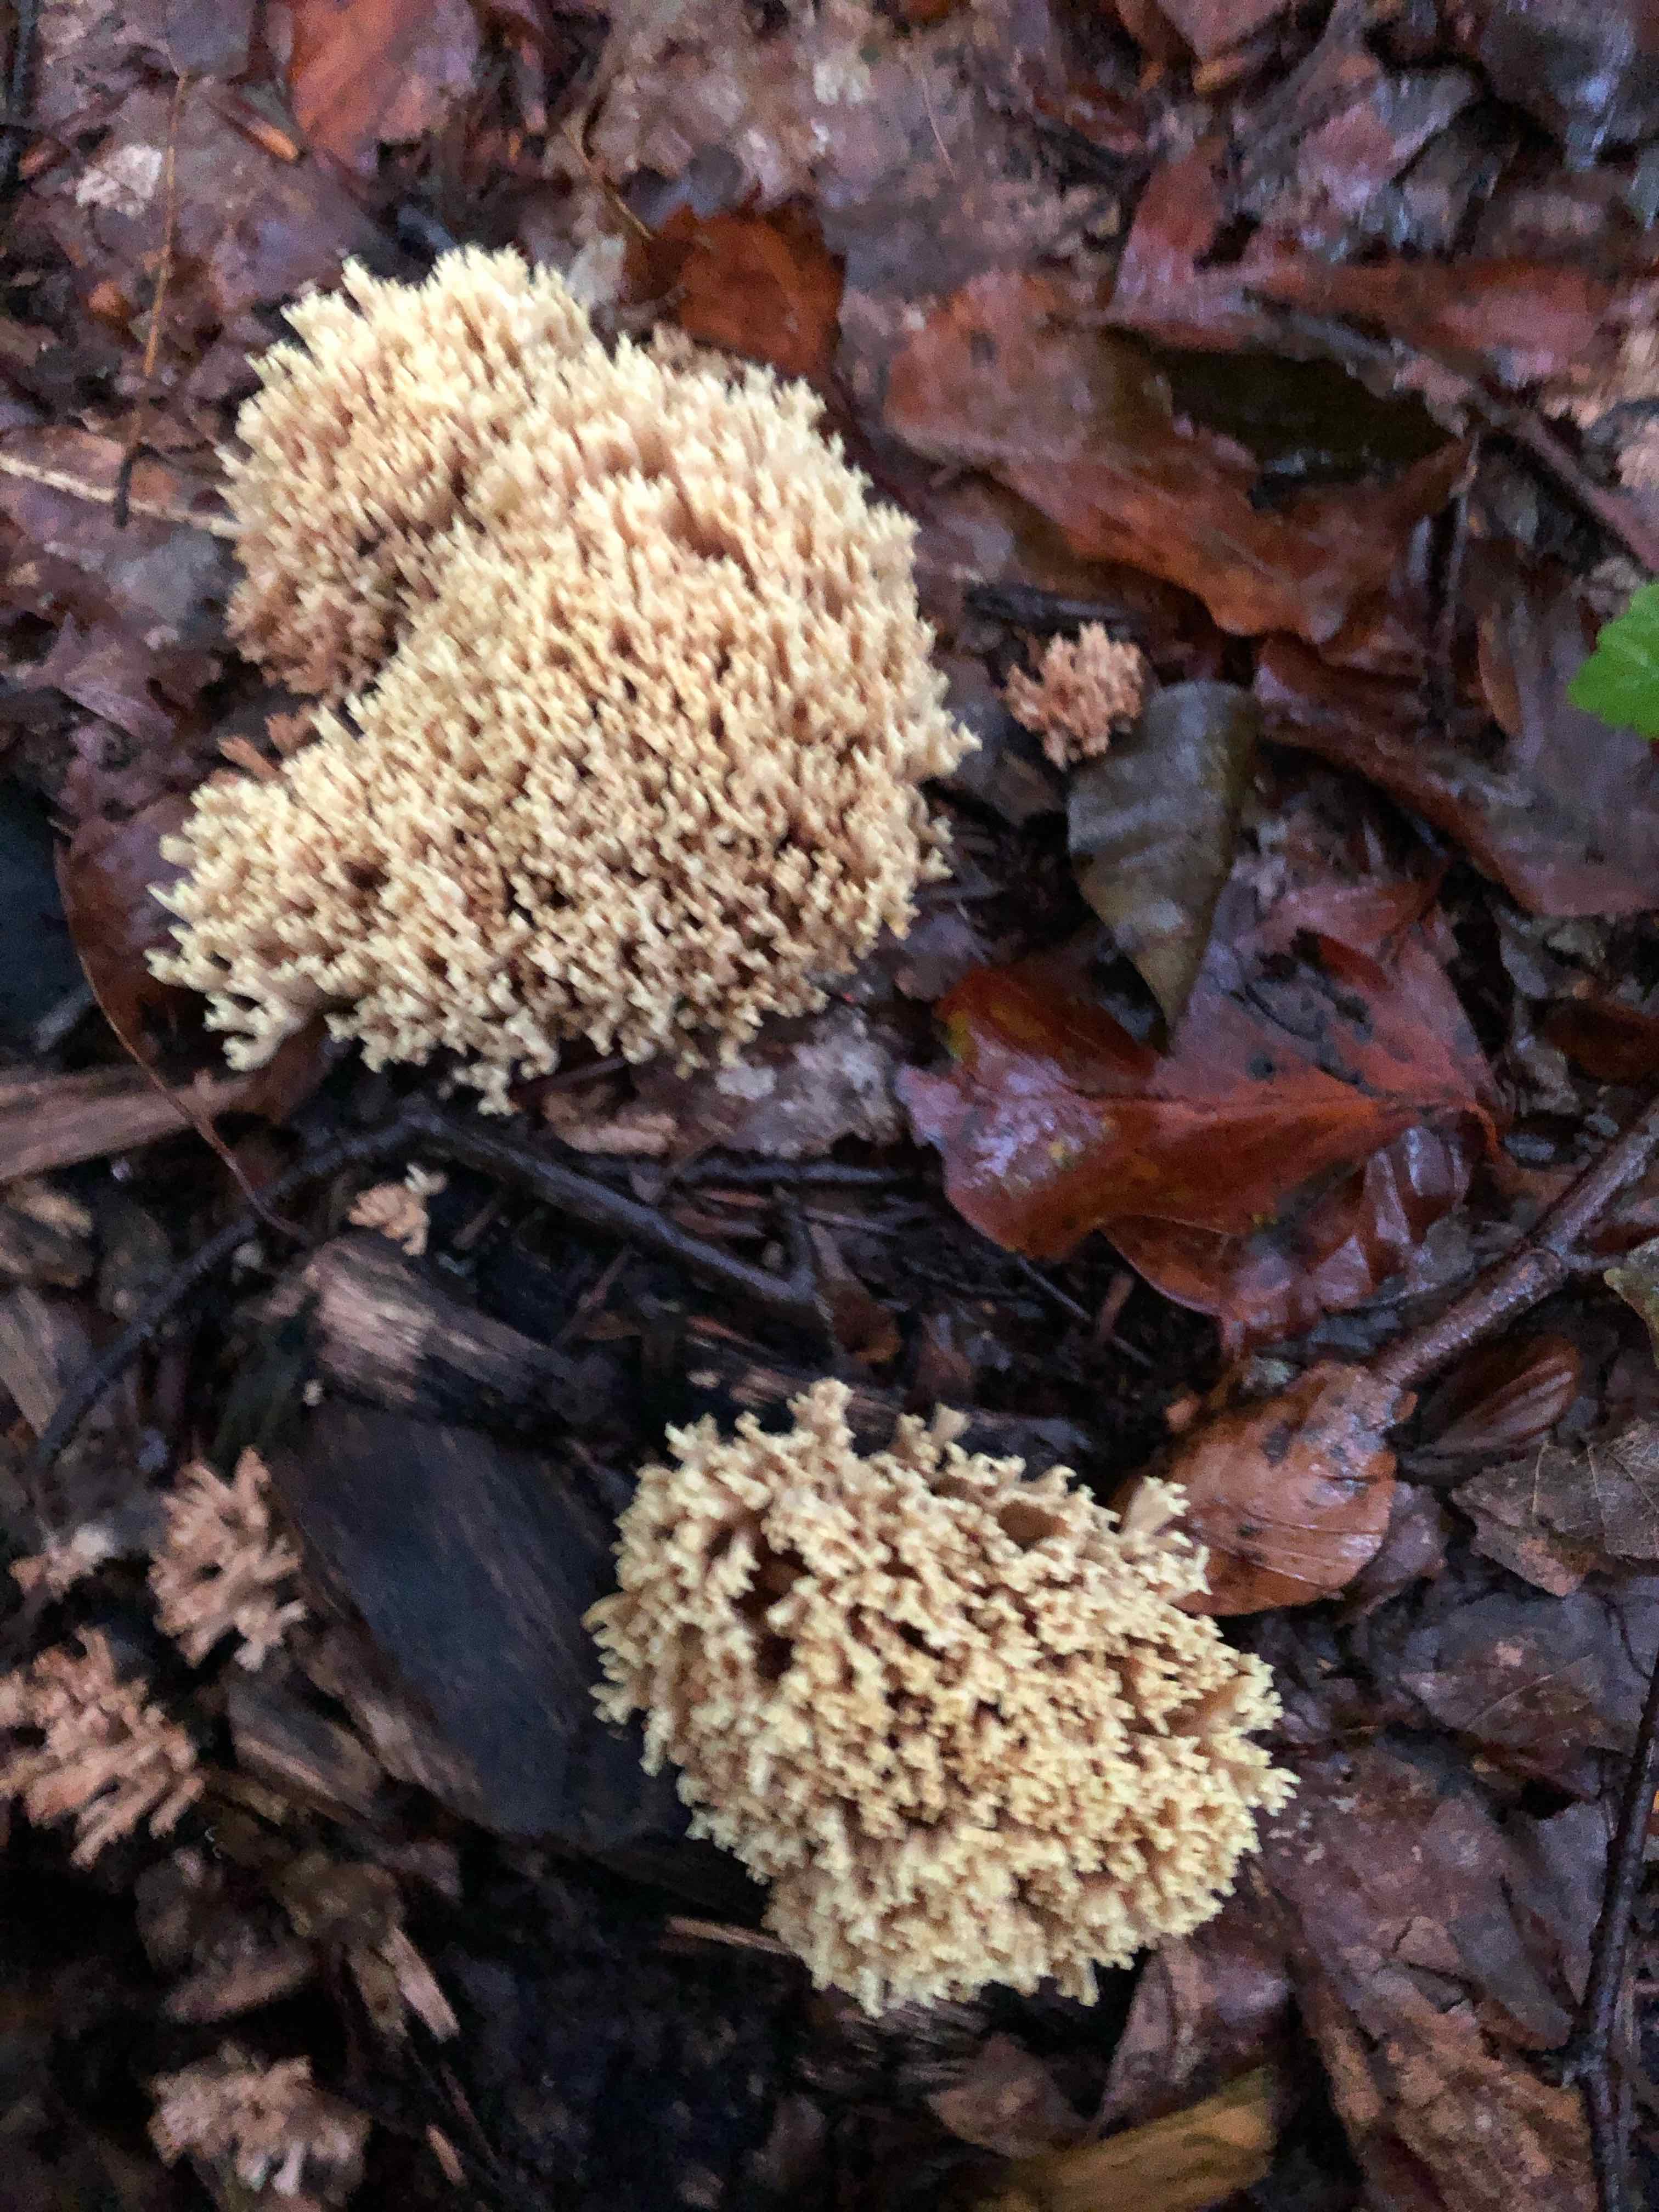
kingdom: Fungi
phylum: Basidiomycota
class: Agaricomycetes
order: Gomphales
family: Gomphaceae
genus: Ramaria
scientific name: Ramaria stricta
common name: rank koralsvamp
